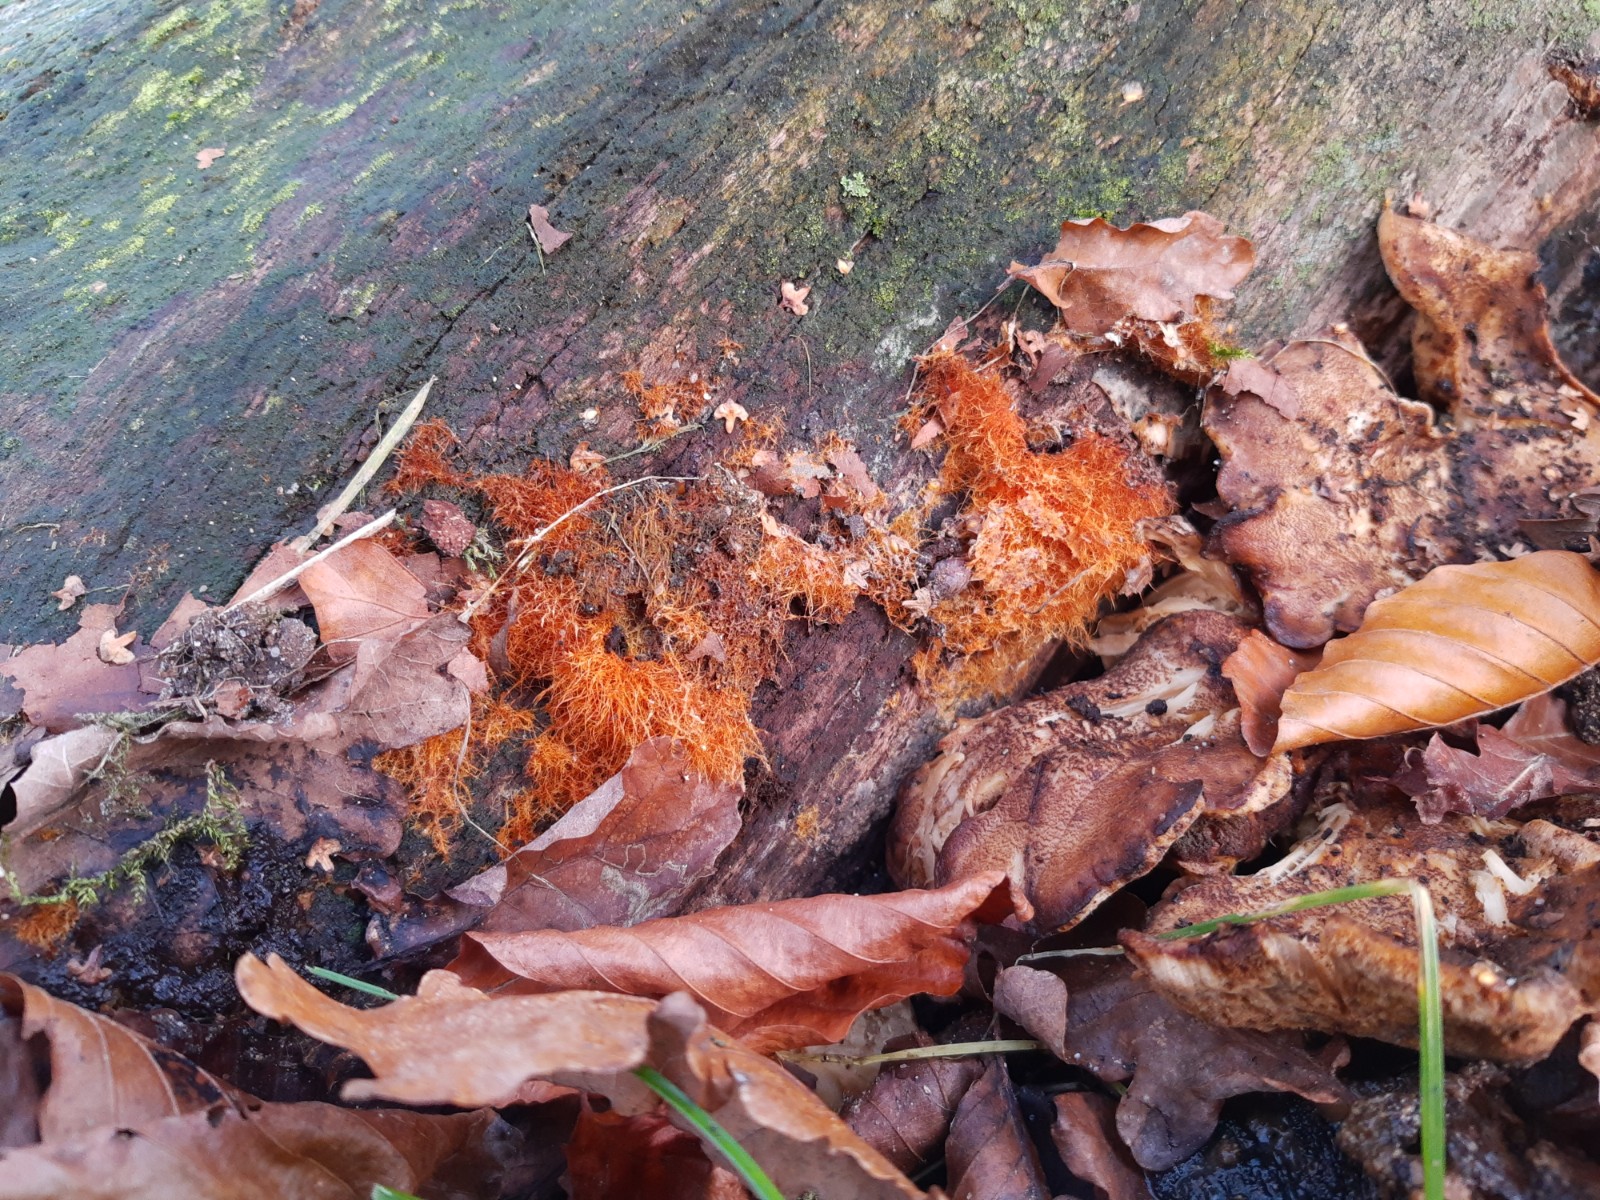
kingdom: Fungi
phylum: Basidiomycota
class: Agaricomycetes
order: Agaricales
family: Psathyrellaceae
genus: Ozonium
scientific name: Ozonium
